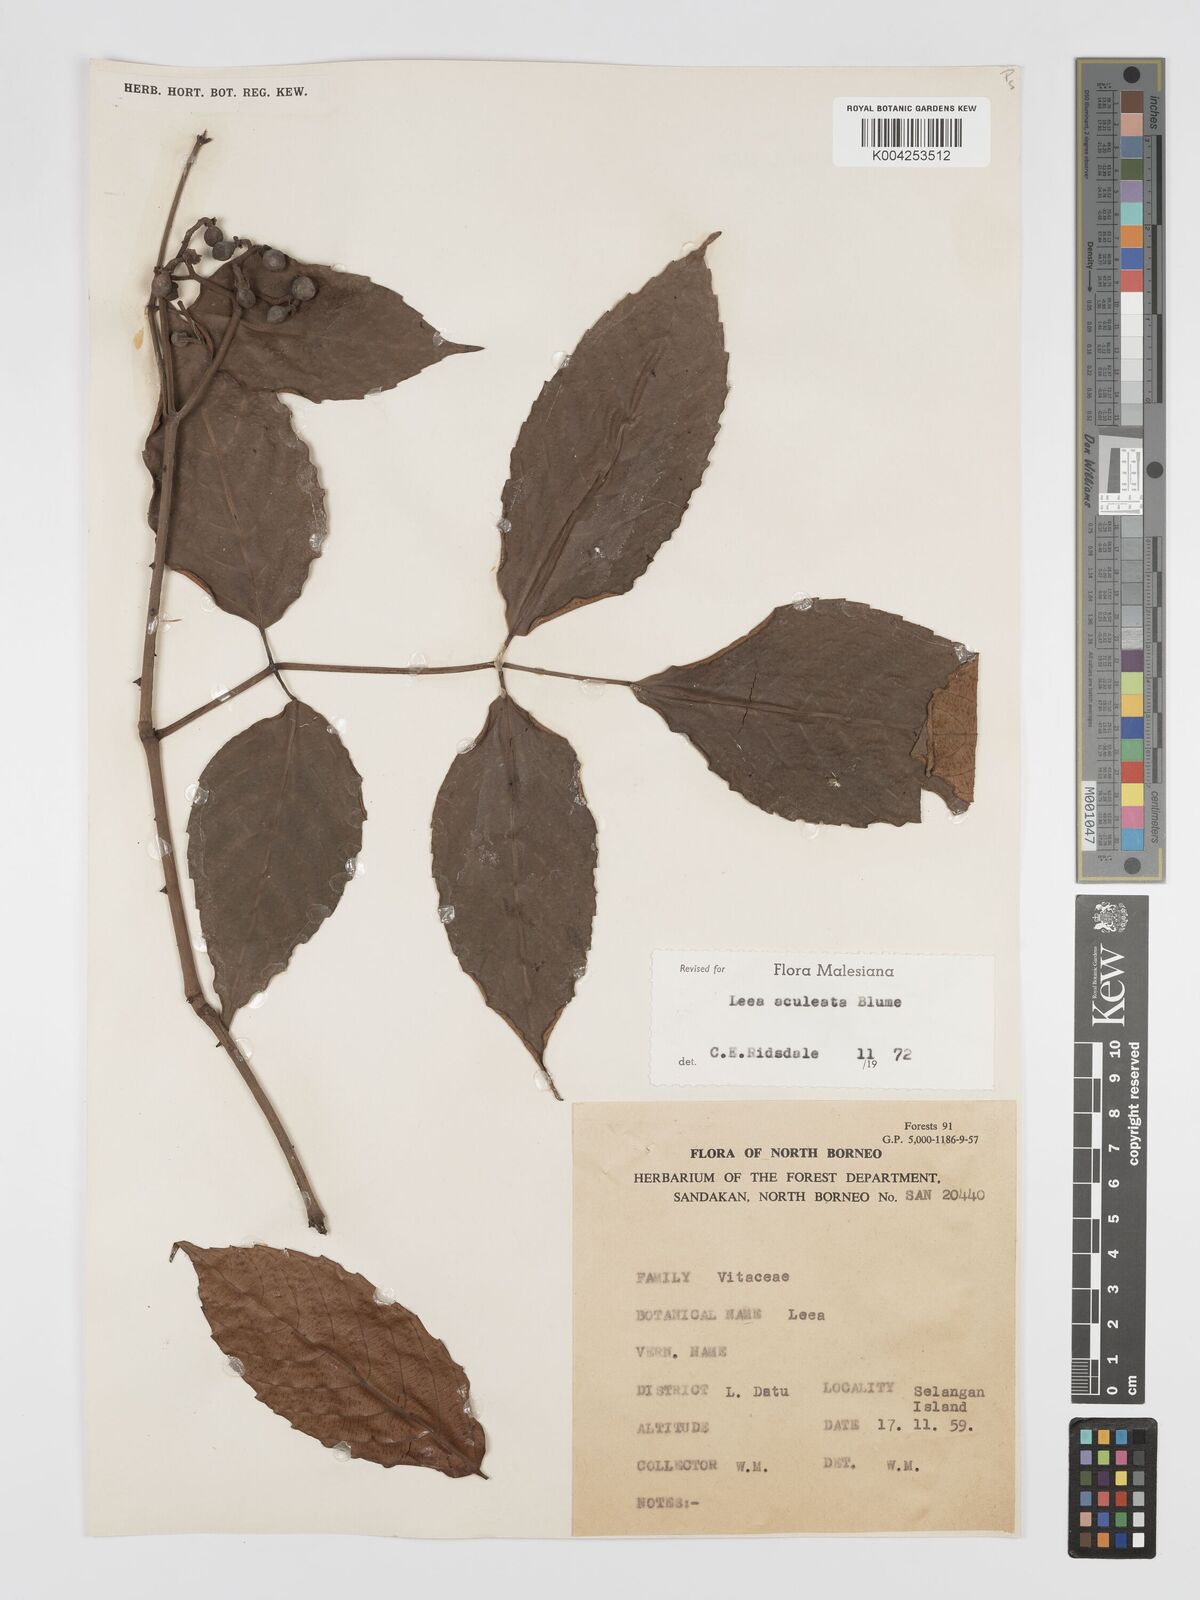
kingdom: Plantae
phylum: Tracheophyta
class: Magnoliopsida
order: Vitales
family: Vitaceae
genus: Leea
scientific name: Leea aculeata
